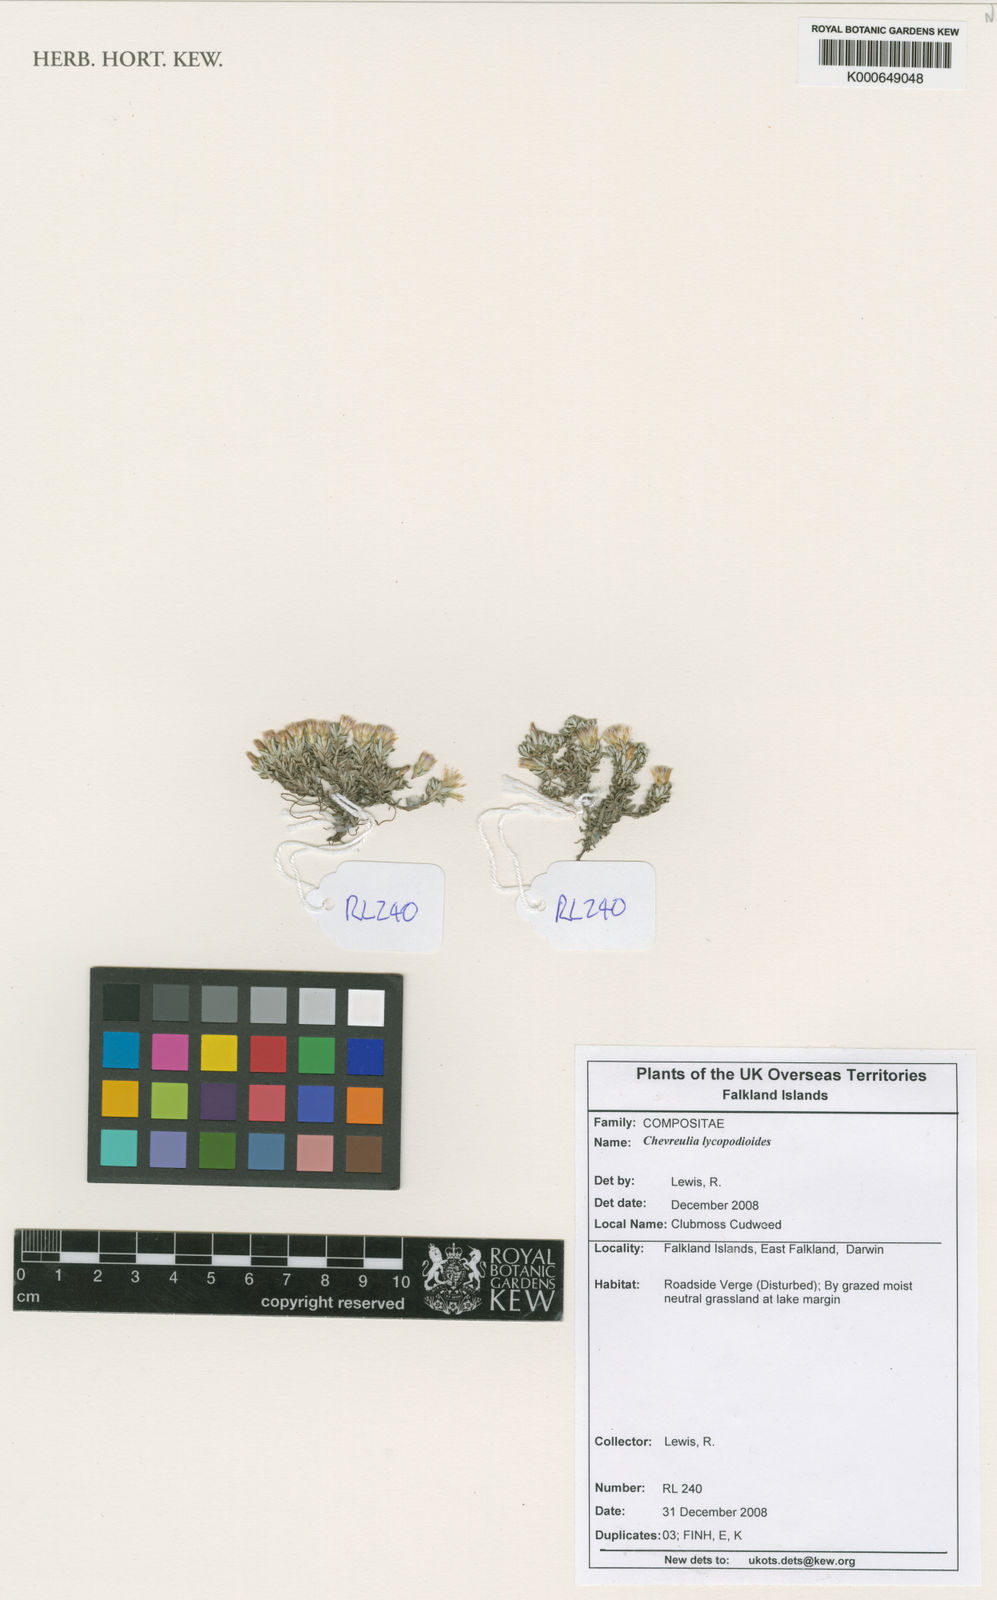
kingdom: Plantae
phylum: Tracheophyta
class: Magnoliopsida
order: Asterales
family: Asteraceae
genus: Chevreulia
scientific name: Chevreulia lycopodioides
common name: Clubmoss cudweed
